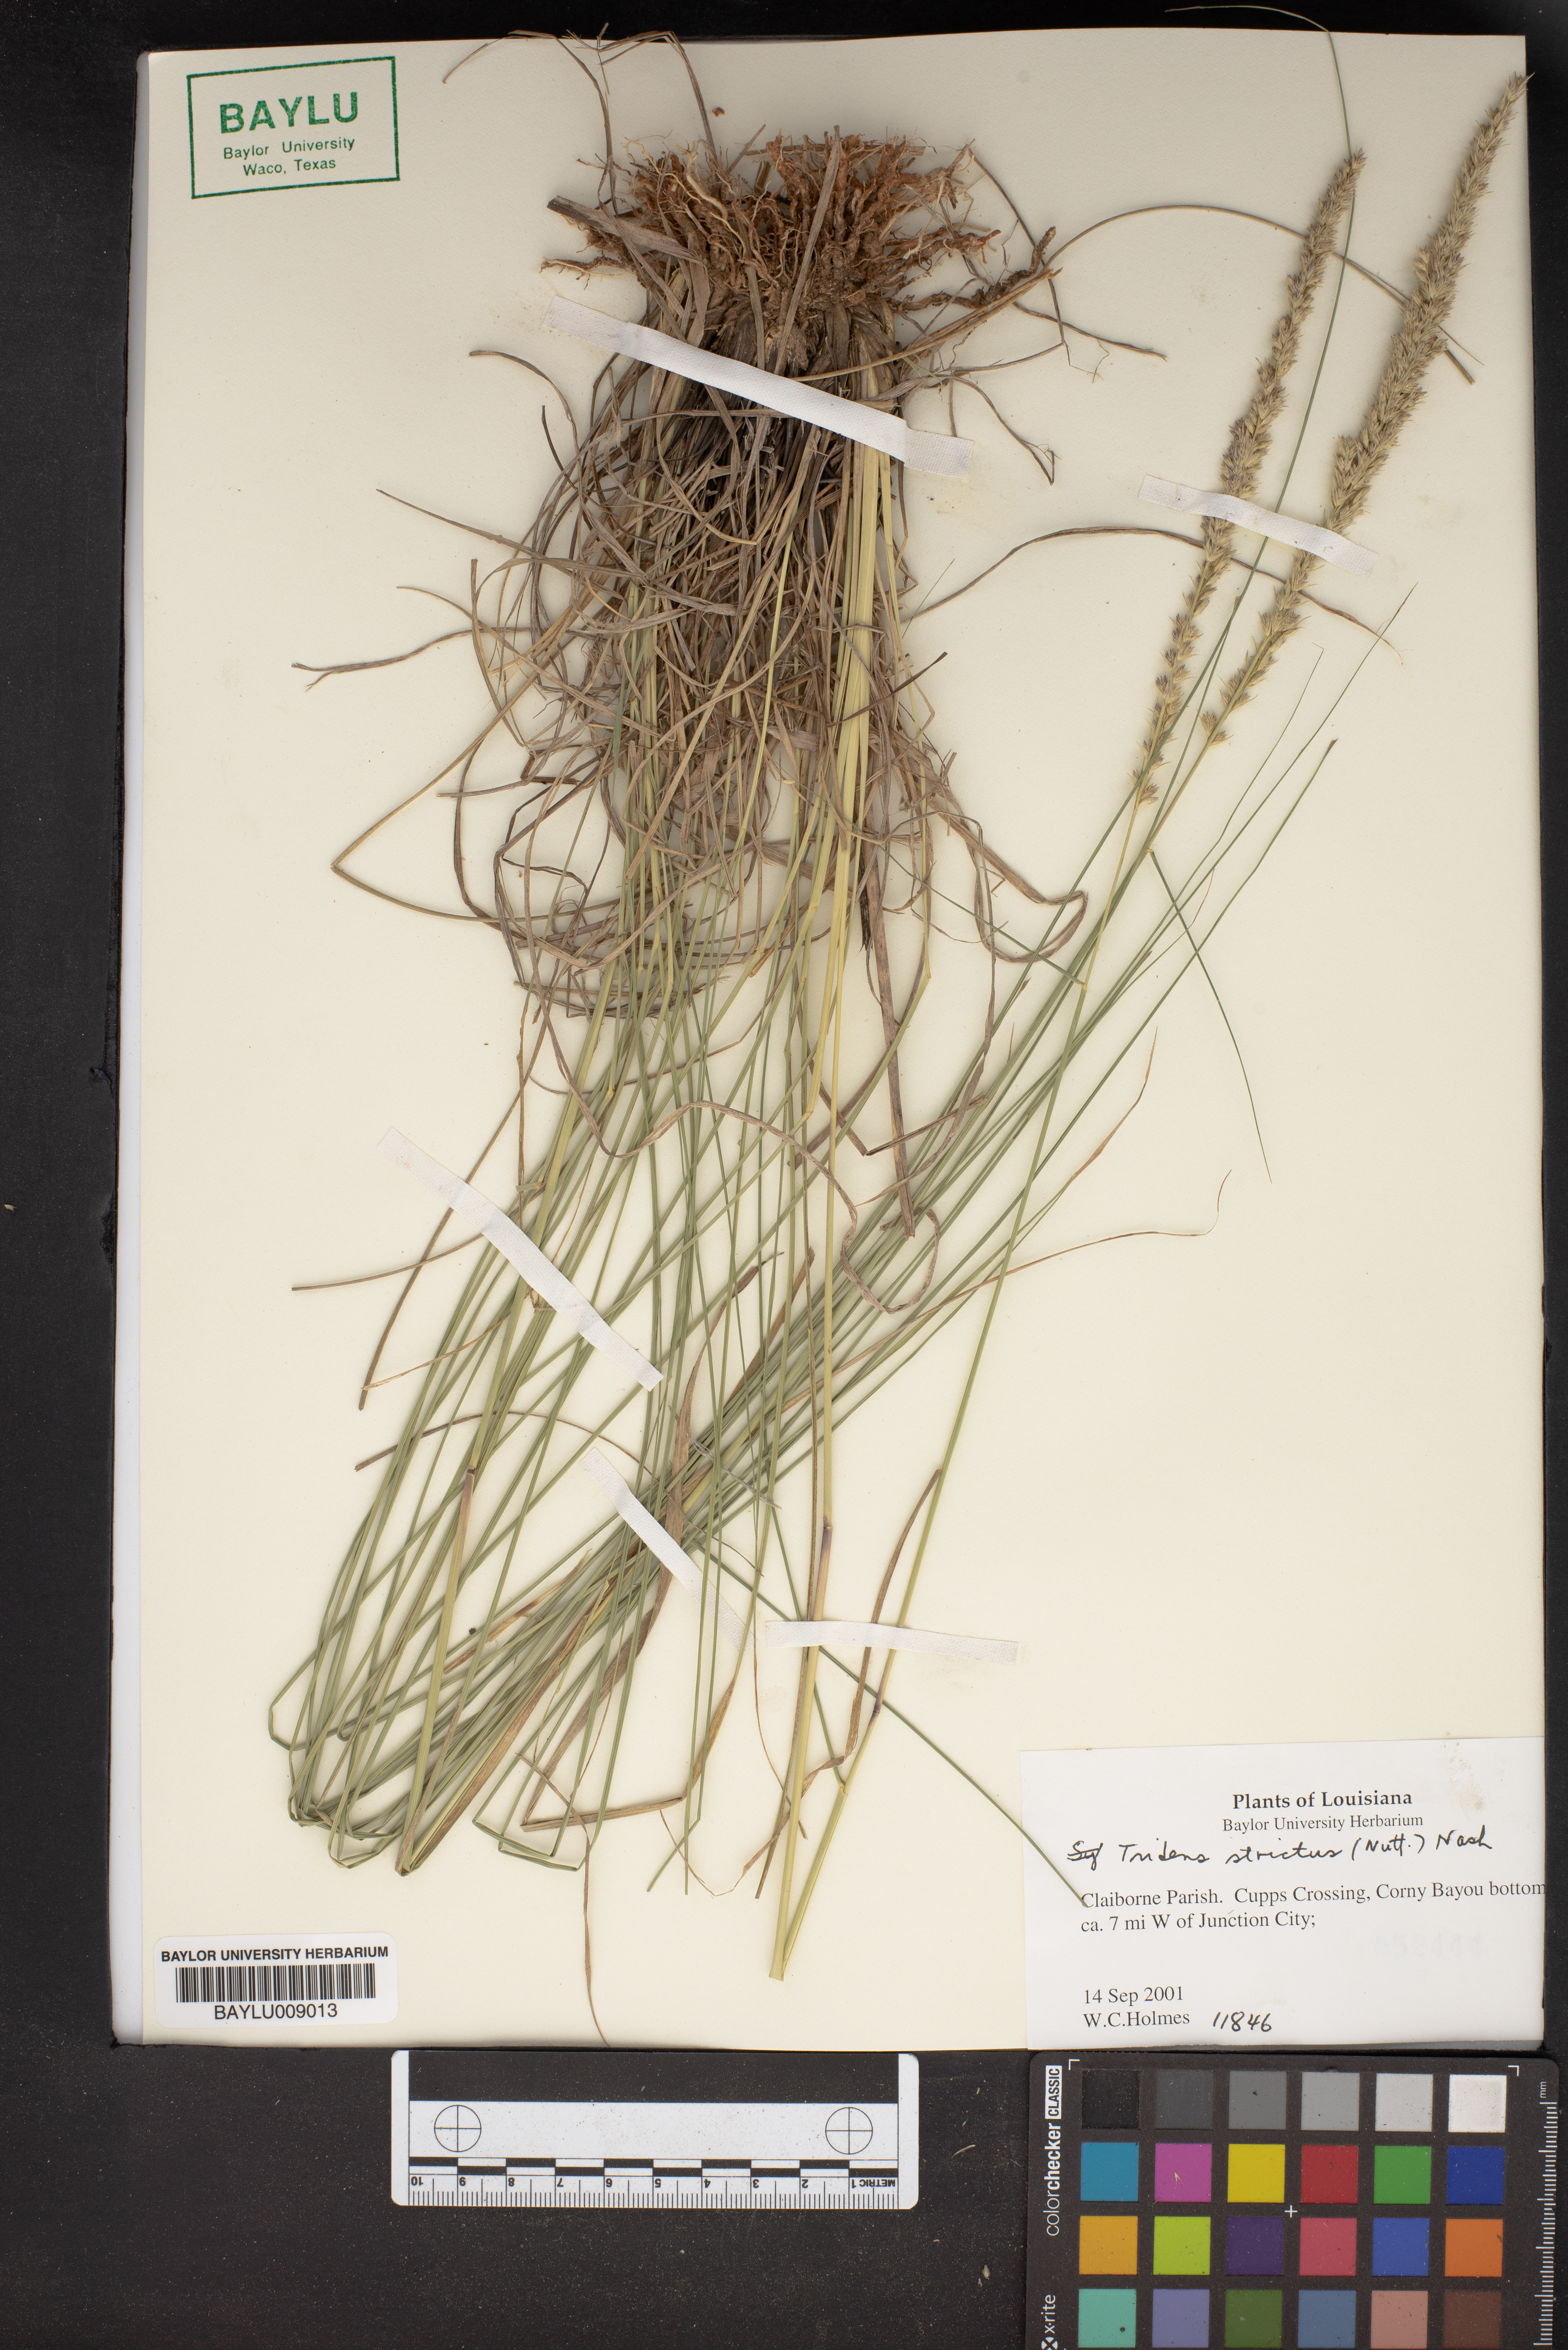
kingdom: Plantae
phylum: Tracheophyta
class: Liliopsida
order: Poales
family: Poaceae
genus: Tridens
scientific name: Tridens strictus
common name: Long-spike tridens
